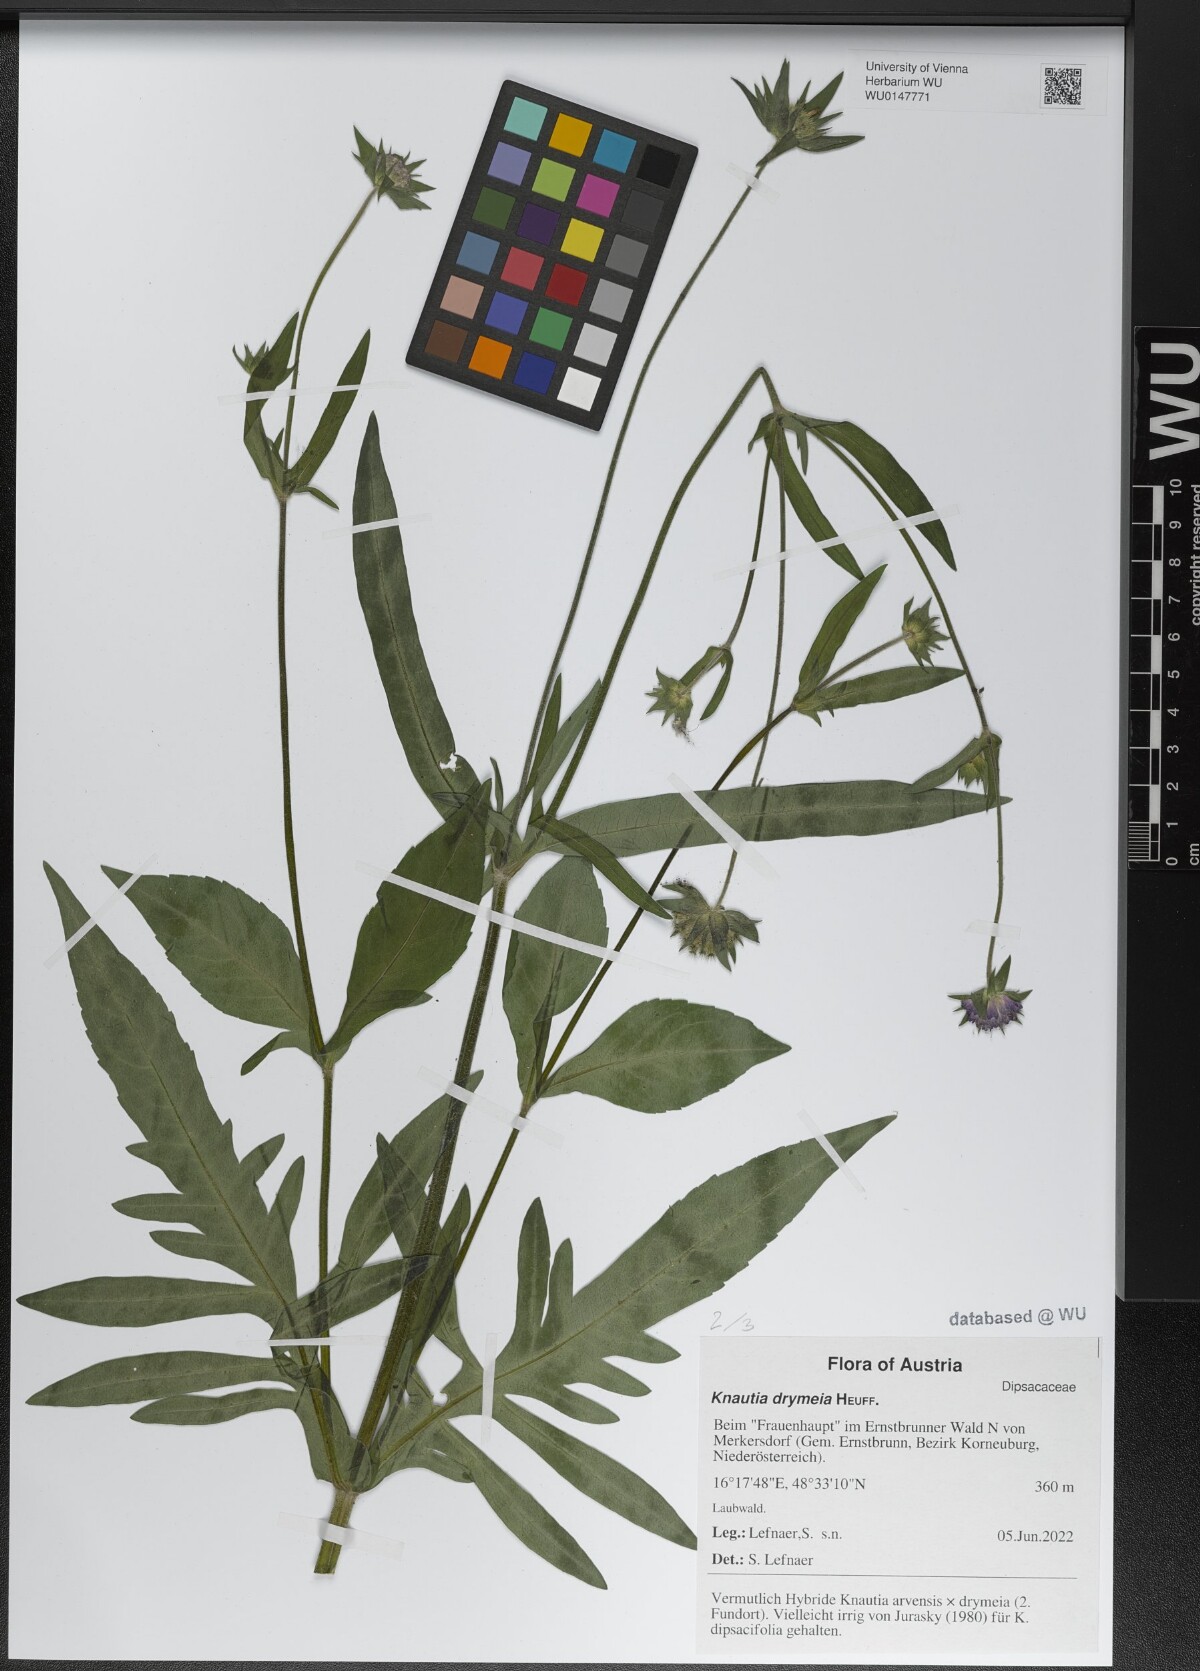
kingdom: Plantae
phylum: Tracheophyta
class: Magnoliopsida
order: Dipsacales
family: Caprifoliaceae
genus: Knautia
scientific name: Knautia drymeia
